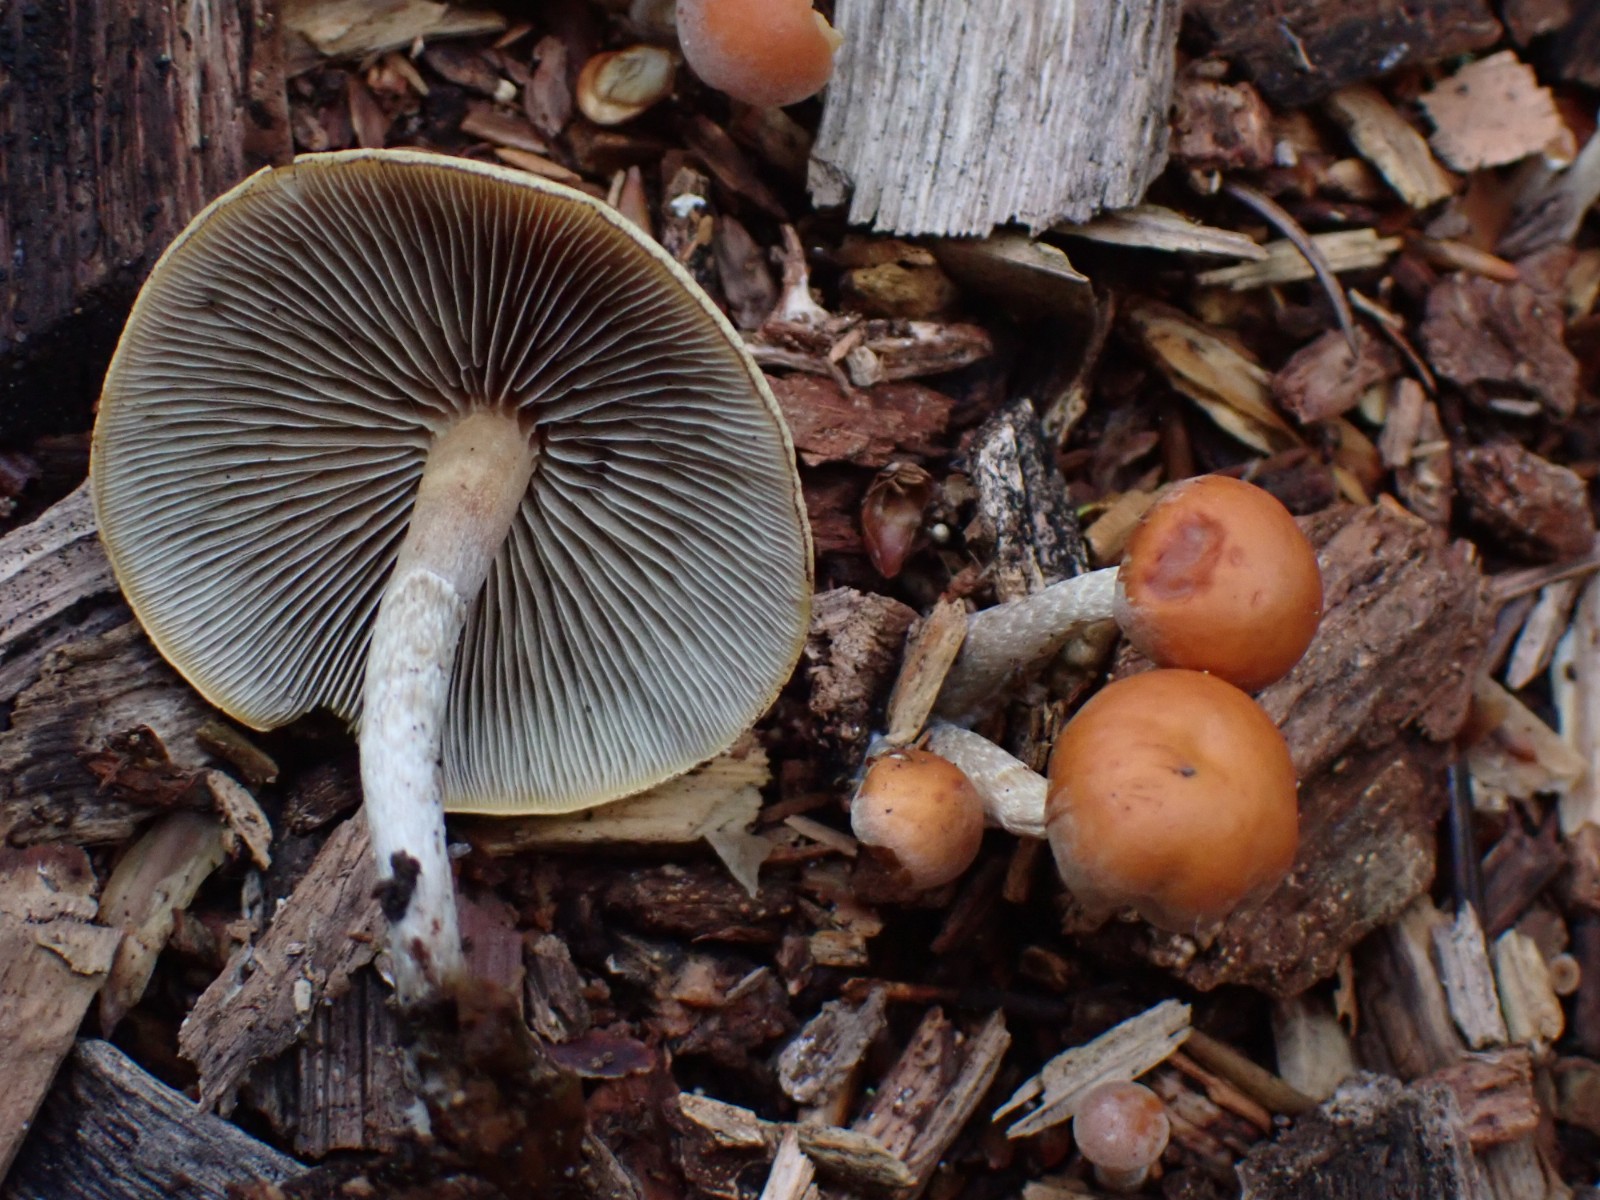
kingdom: Fungi
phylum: Basidiomycota
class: Agaricomycetes
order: Agaricales
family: Strophariaceae
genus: Hypholoma
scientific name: Hypholoma marginatum
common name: enlig svovlhat
